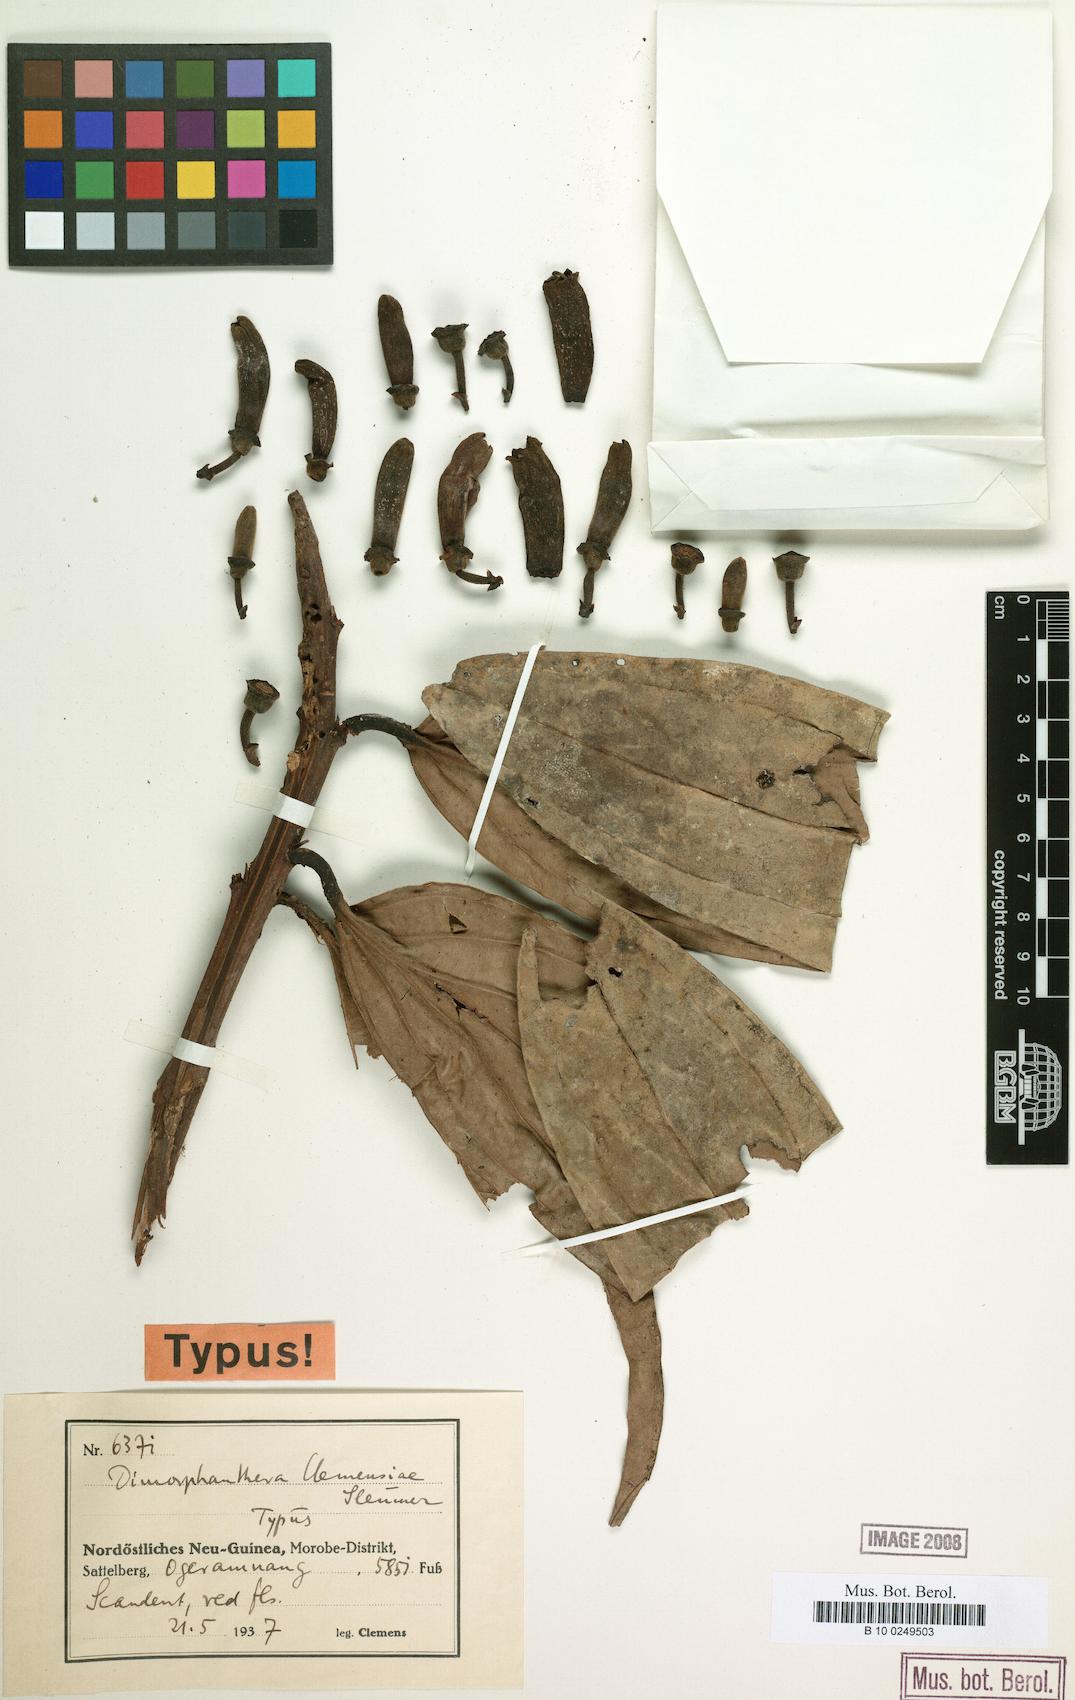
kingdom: Plantae
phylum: Tracheophyta
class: Magnoliopsida
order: Ericales
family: Ericaceae
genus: Dimorphanthera
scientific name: Dimorphanthera anchorifera
